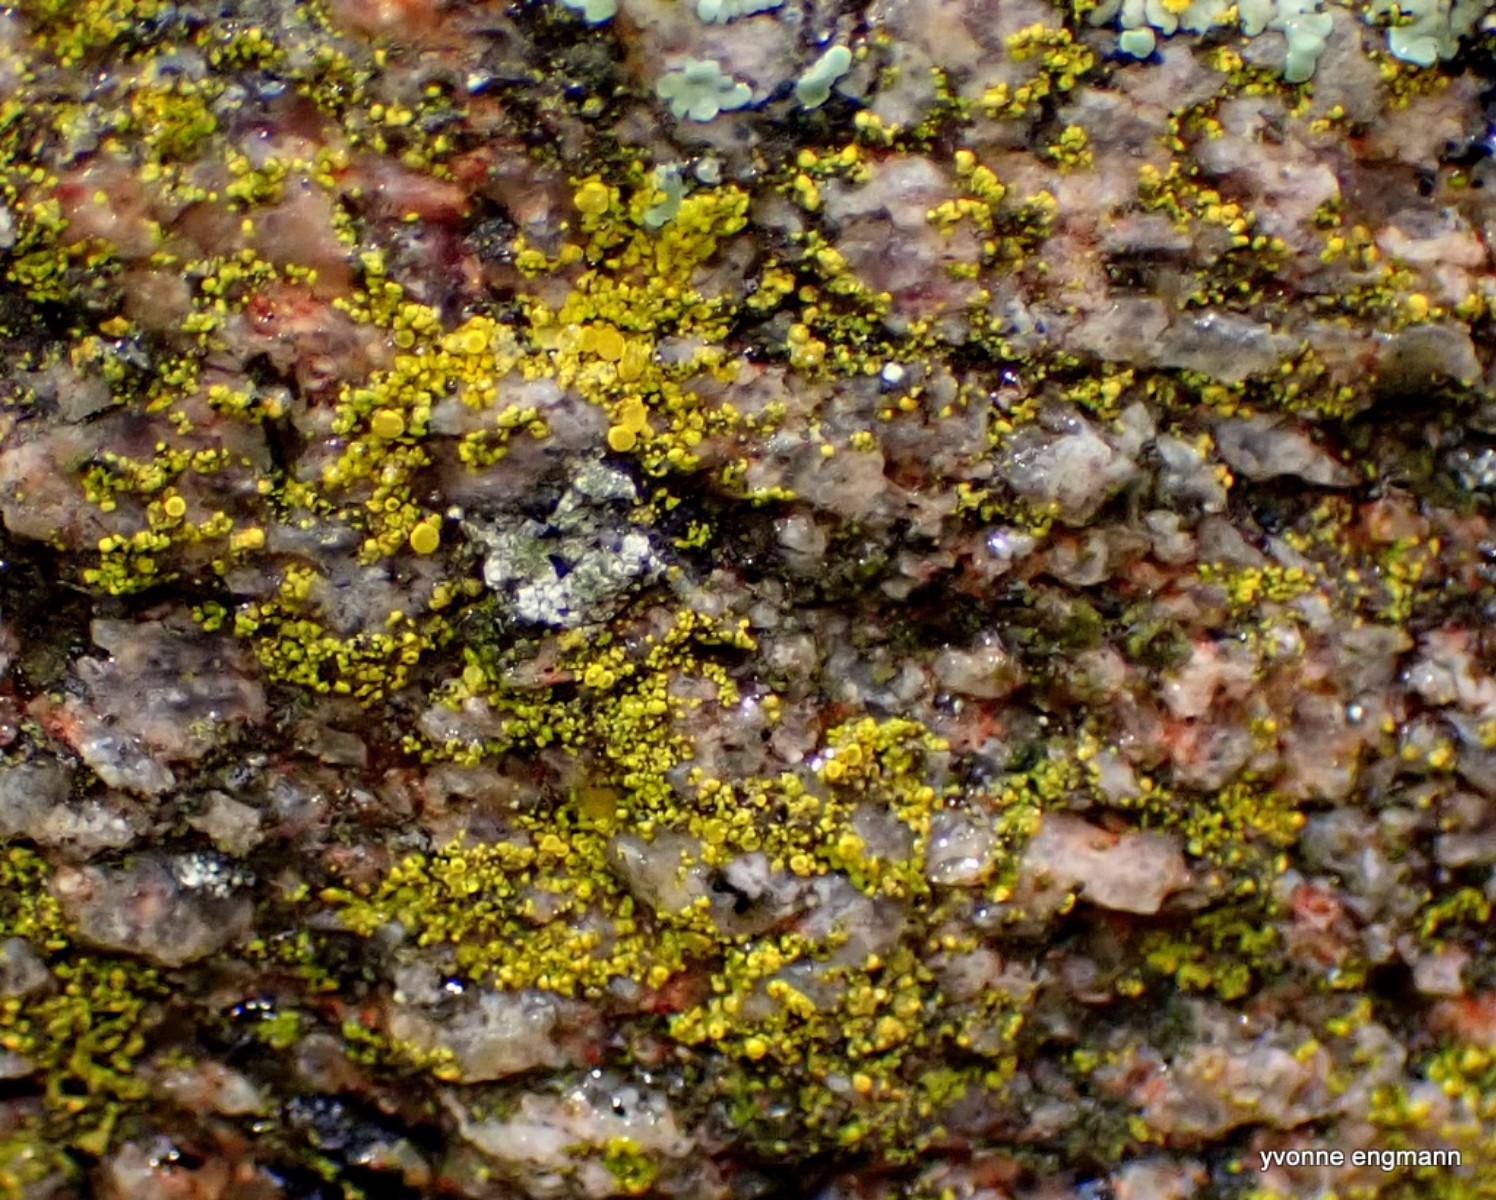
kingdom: Fungi
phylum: Ascomycota
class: Candelariomycetes
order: Candelariales
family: Candelariaceae
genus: Candelariella
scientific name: Candelariella vitellina
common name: almindelig æggeblommelav
